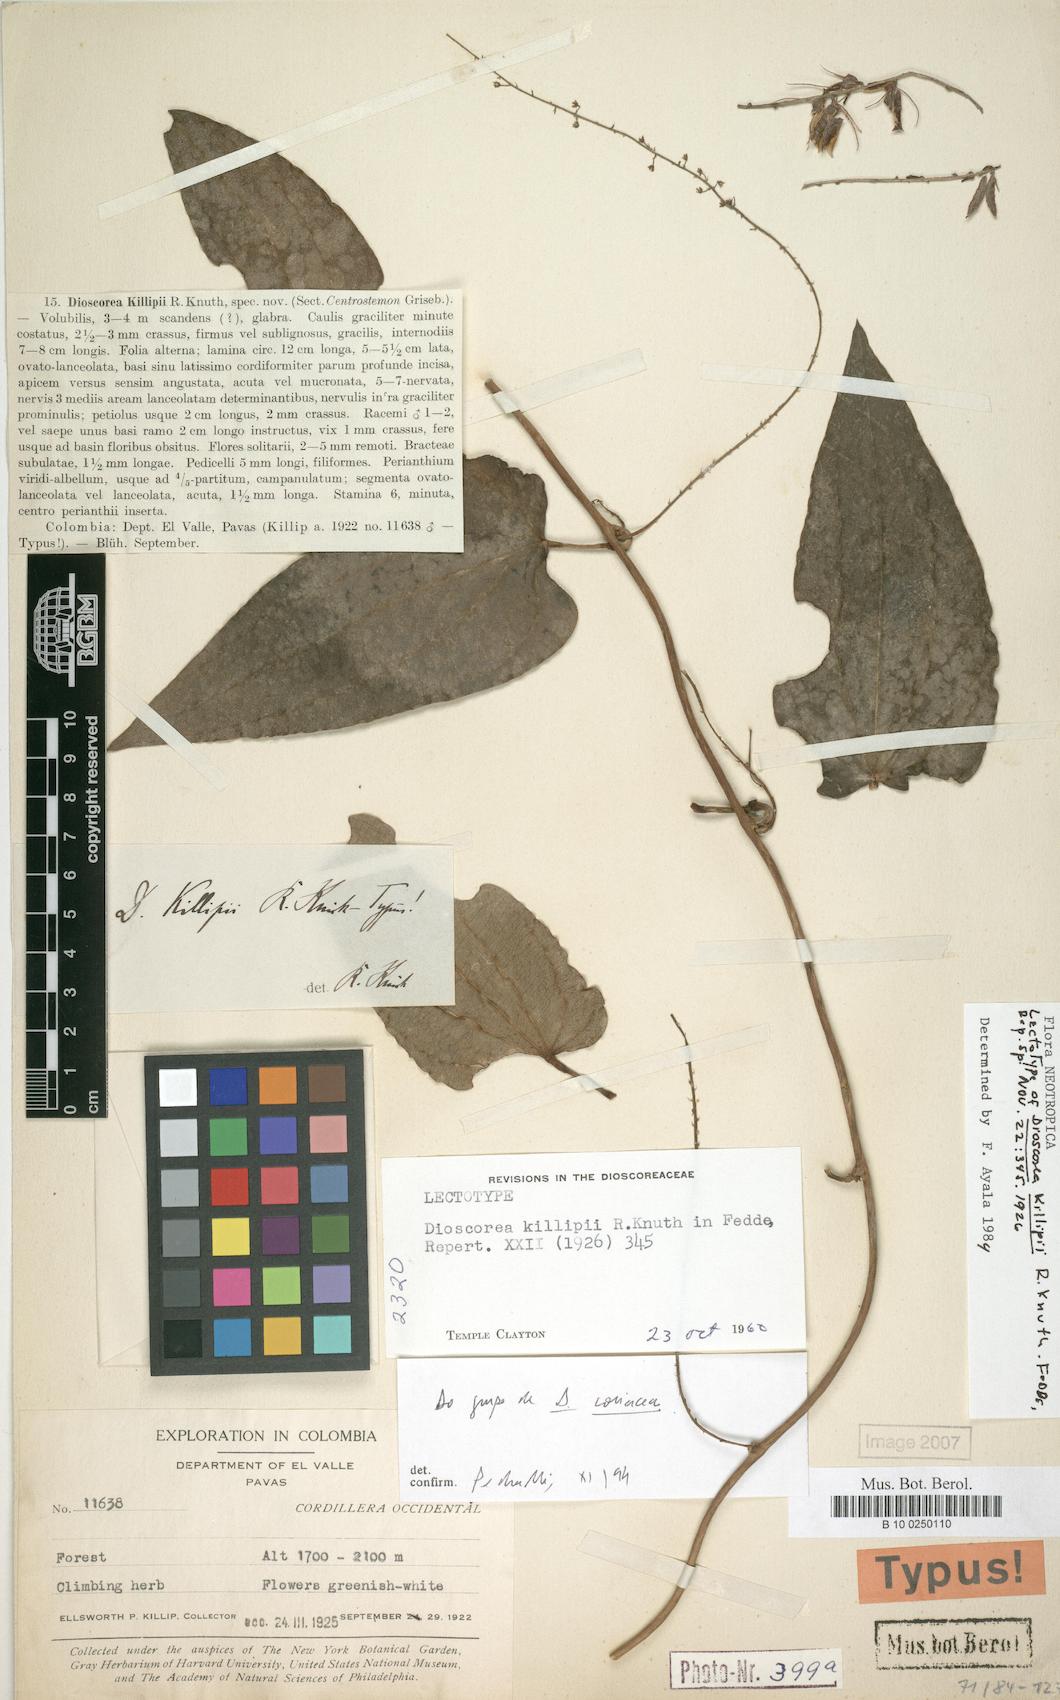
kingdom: Plantae
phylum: Tracheophyta
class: Liliopsida
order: Dioscoreales
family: Dioscoreaceae
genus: Dioscorea
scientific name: Dioscorea killipii
